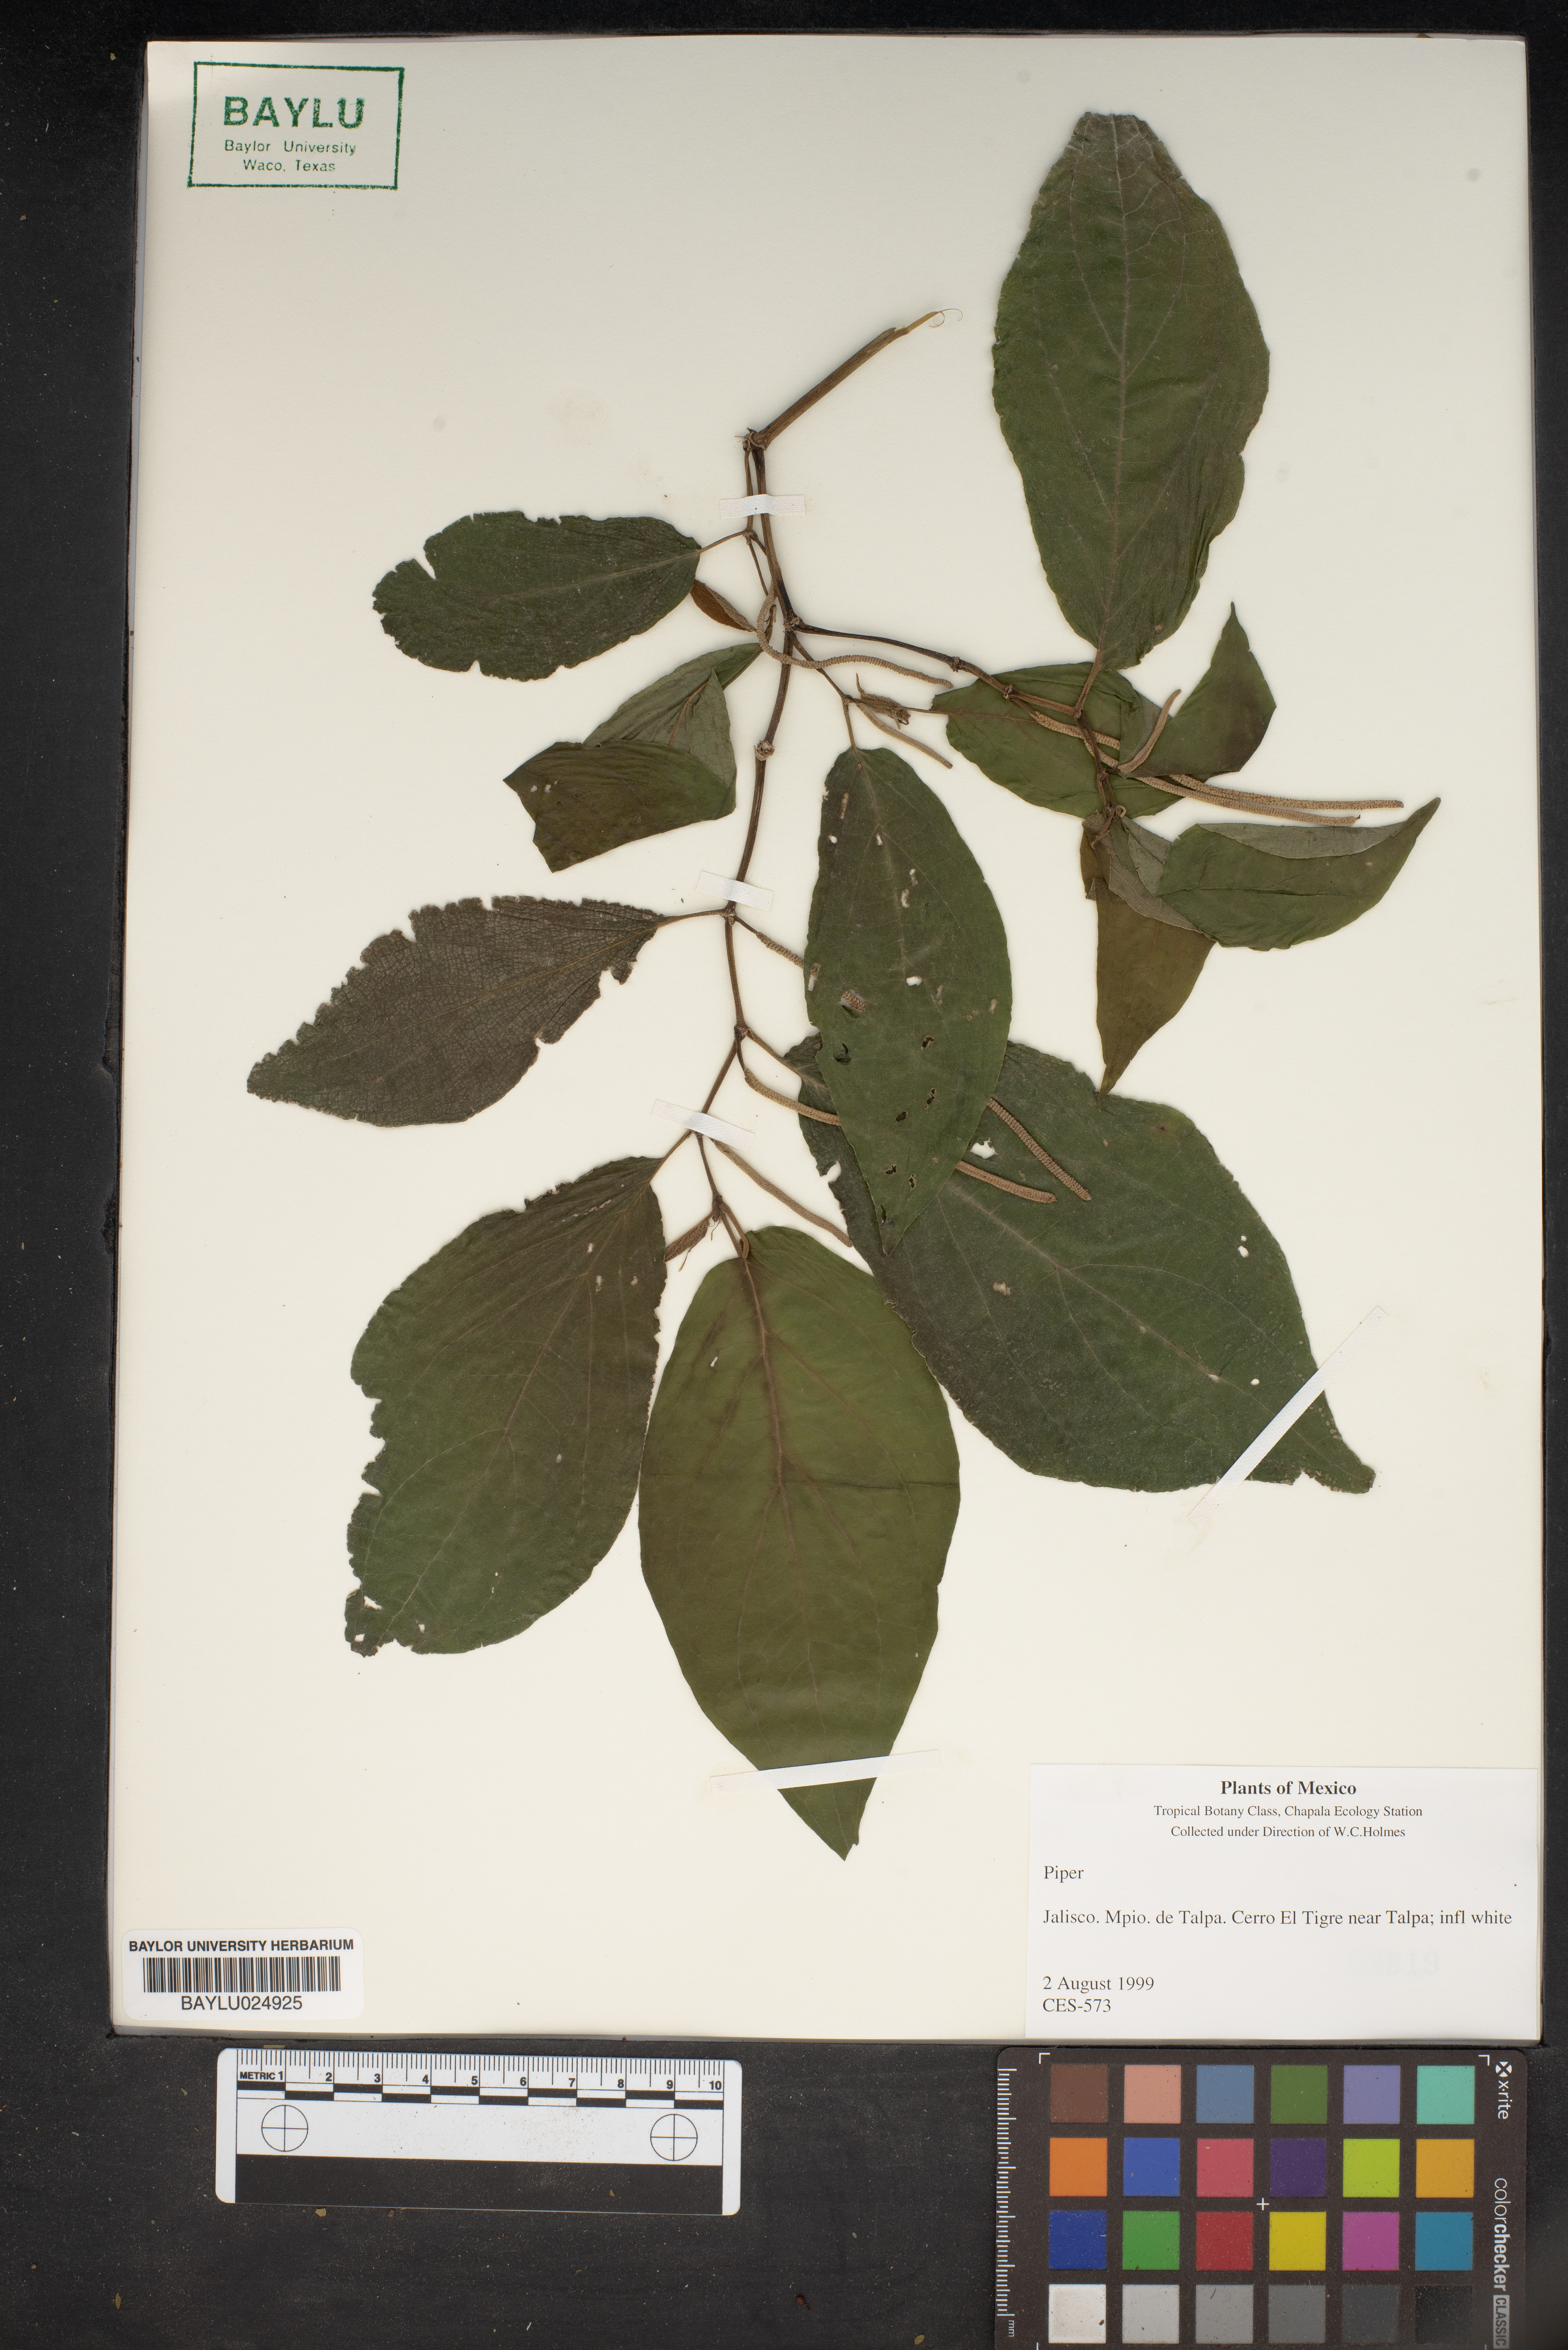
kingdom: Plantae
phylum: Tracheophyta
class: Magnoliopsida
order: Piperales
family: Piperaceae
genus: Piper
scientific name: Piper
